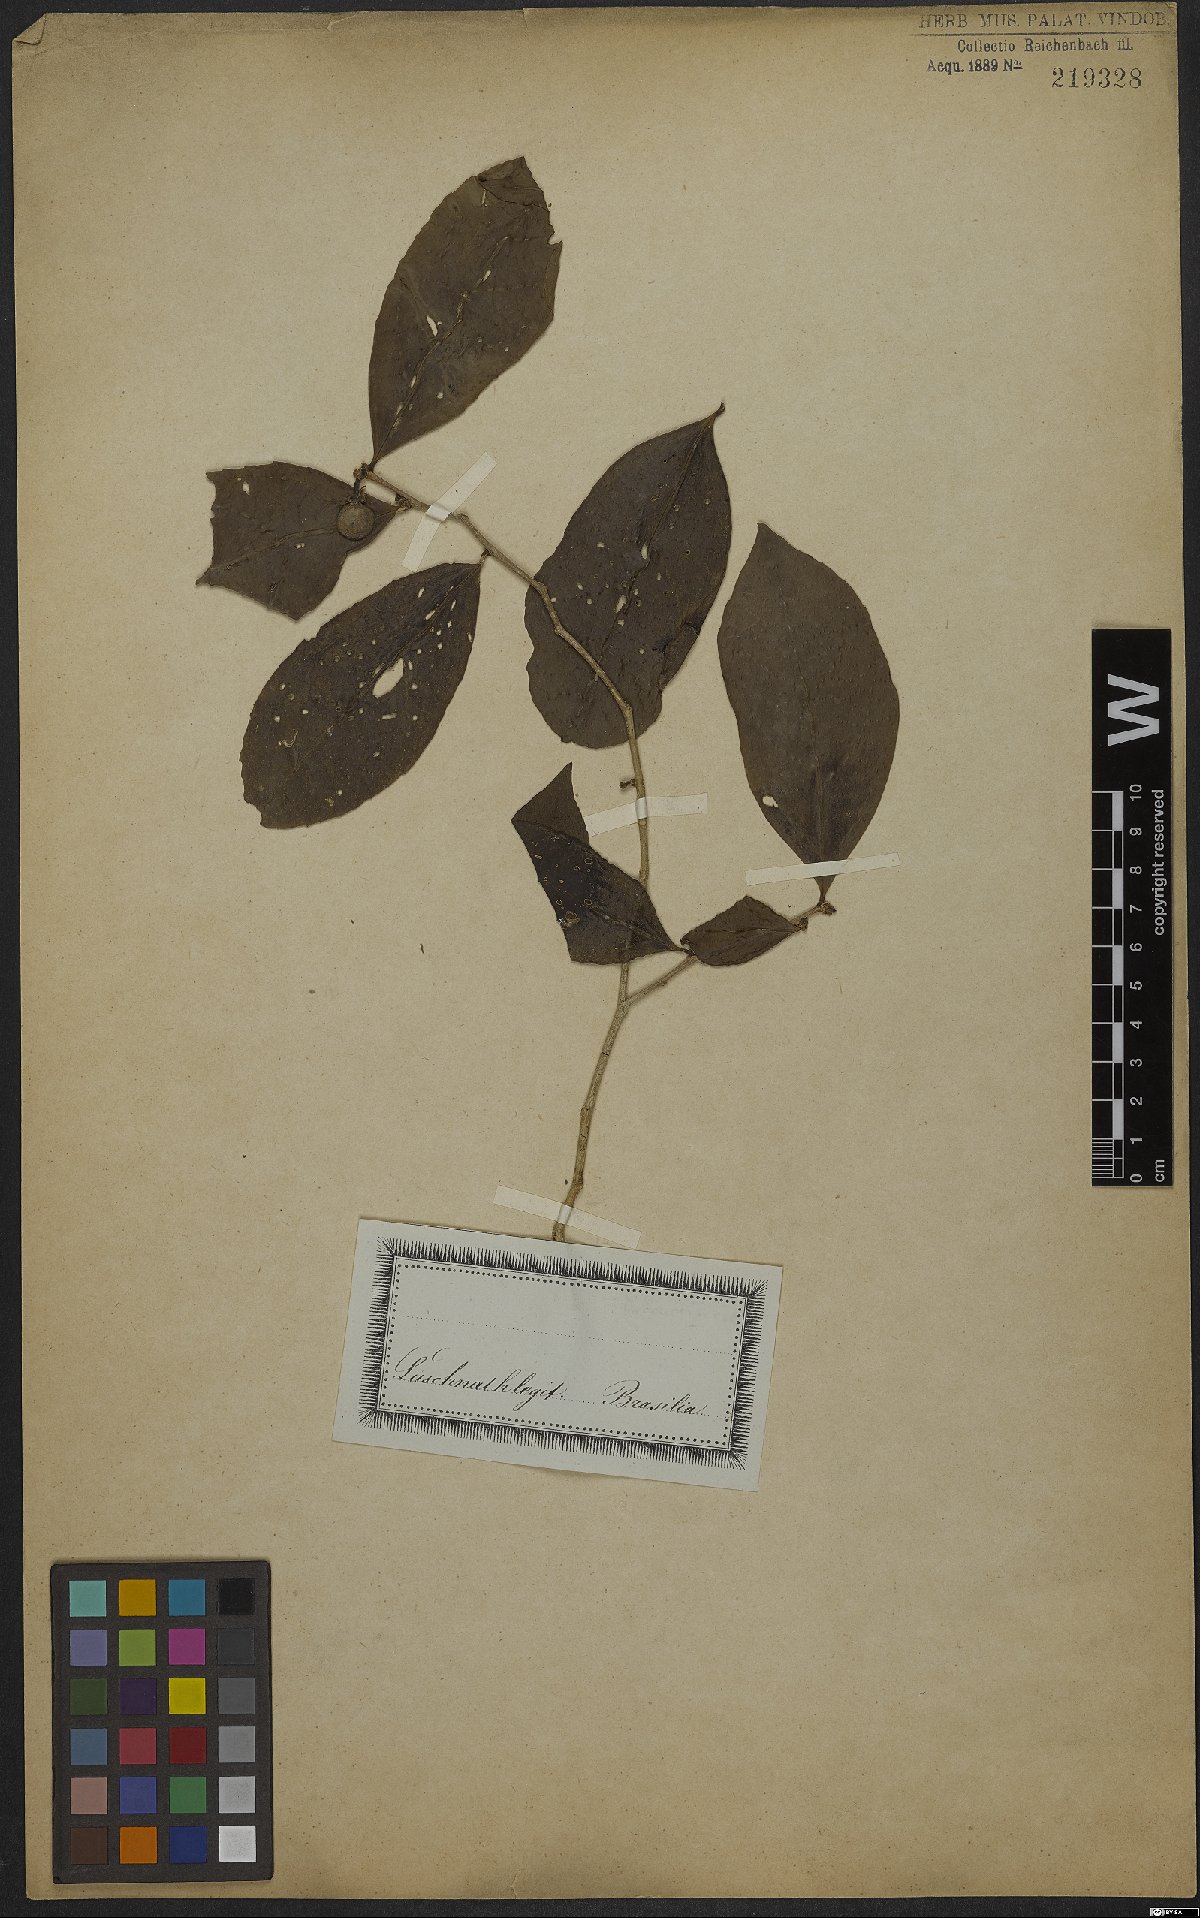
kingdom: Plantae
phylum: Tracheophyta
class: Magnoliopsida
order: Malpighiales
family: Putranjivaceae
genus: Drypetes
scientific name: Drypetes
